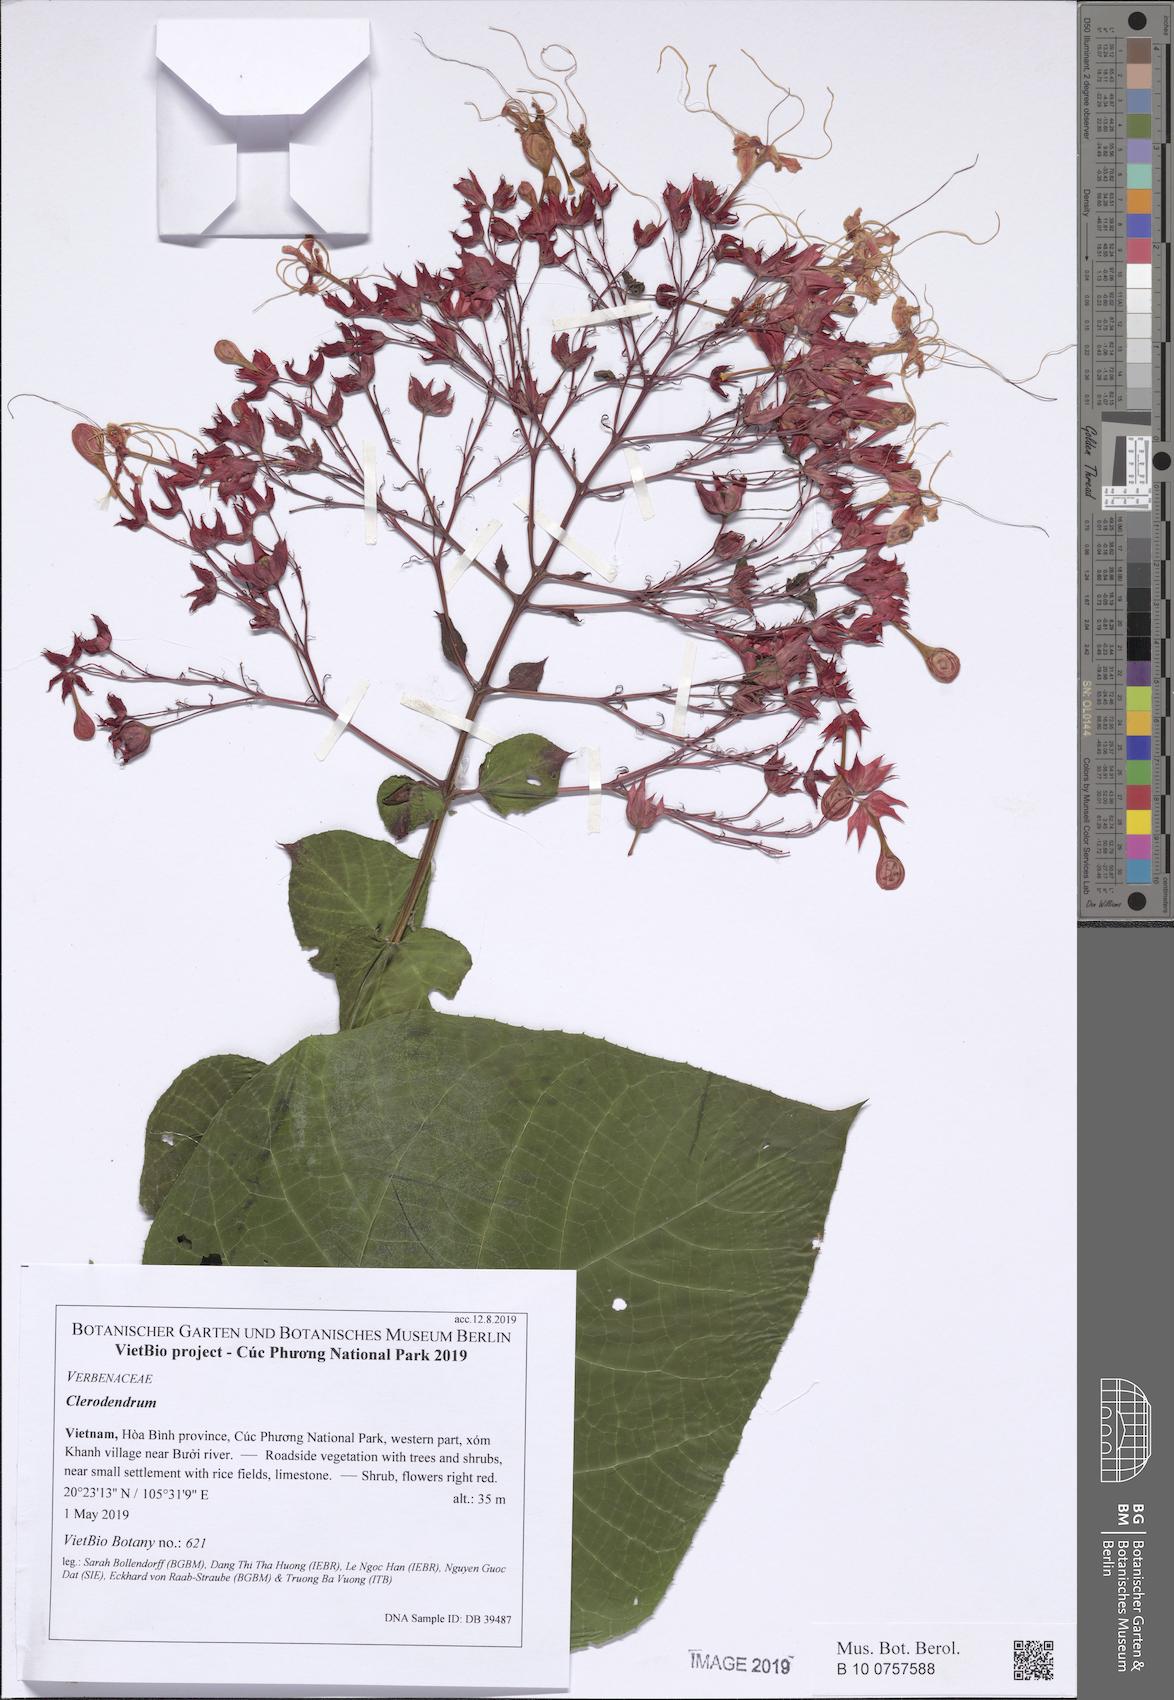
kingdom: Plantae
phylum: Tracheophyta
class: Magnoliopsida
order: Lamiales
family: Lamiaceae
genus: Clerodendrum
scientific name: Clerodendrum paniculatum
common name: Pagoda-flower
